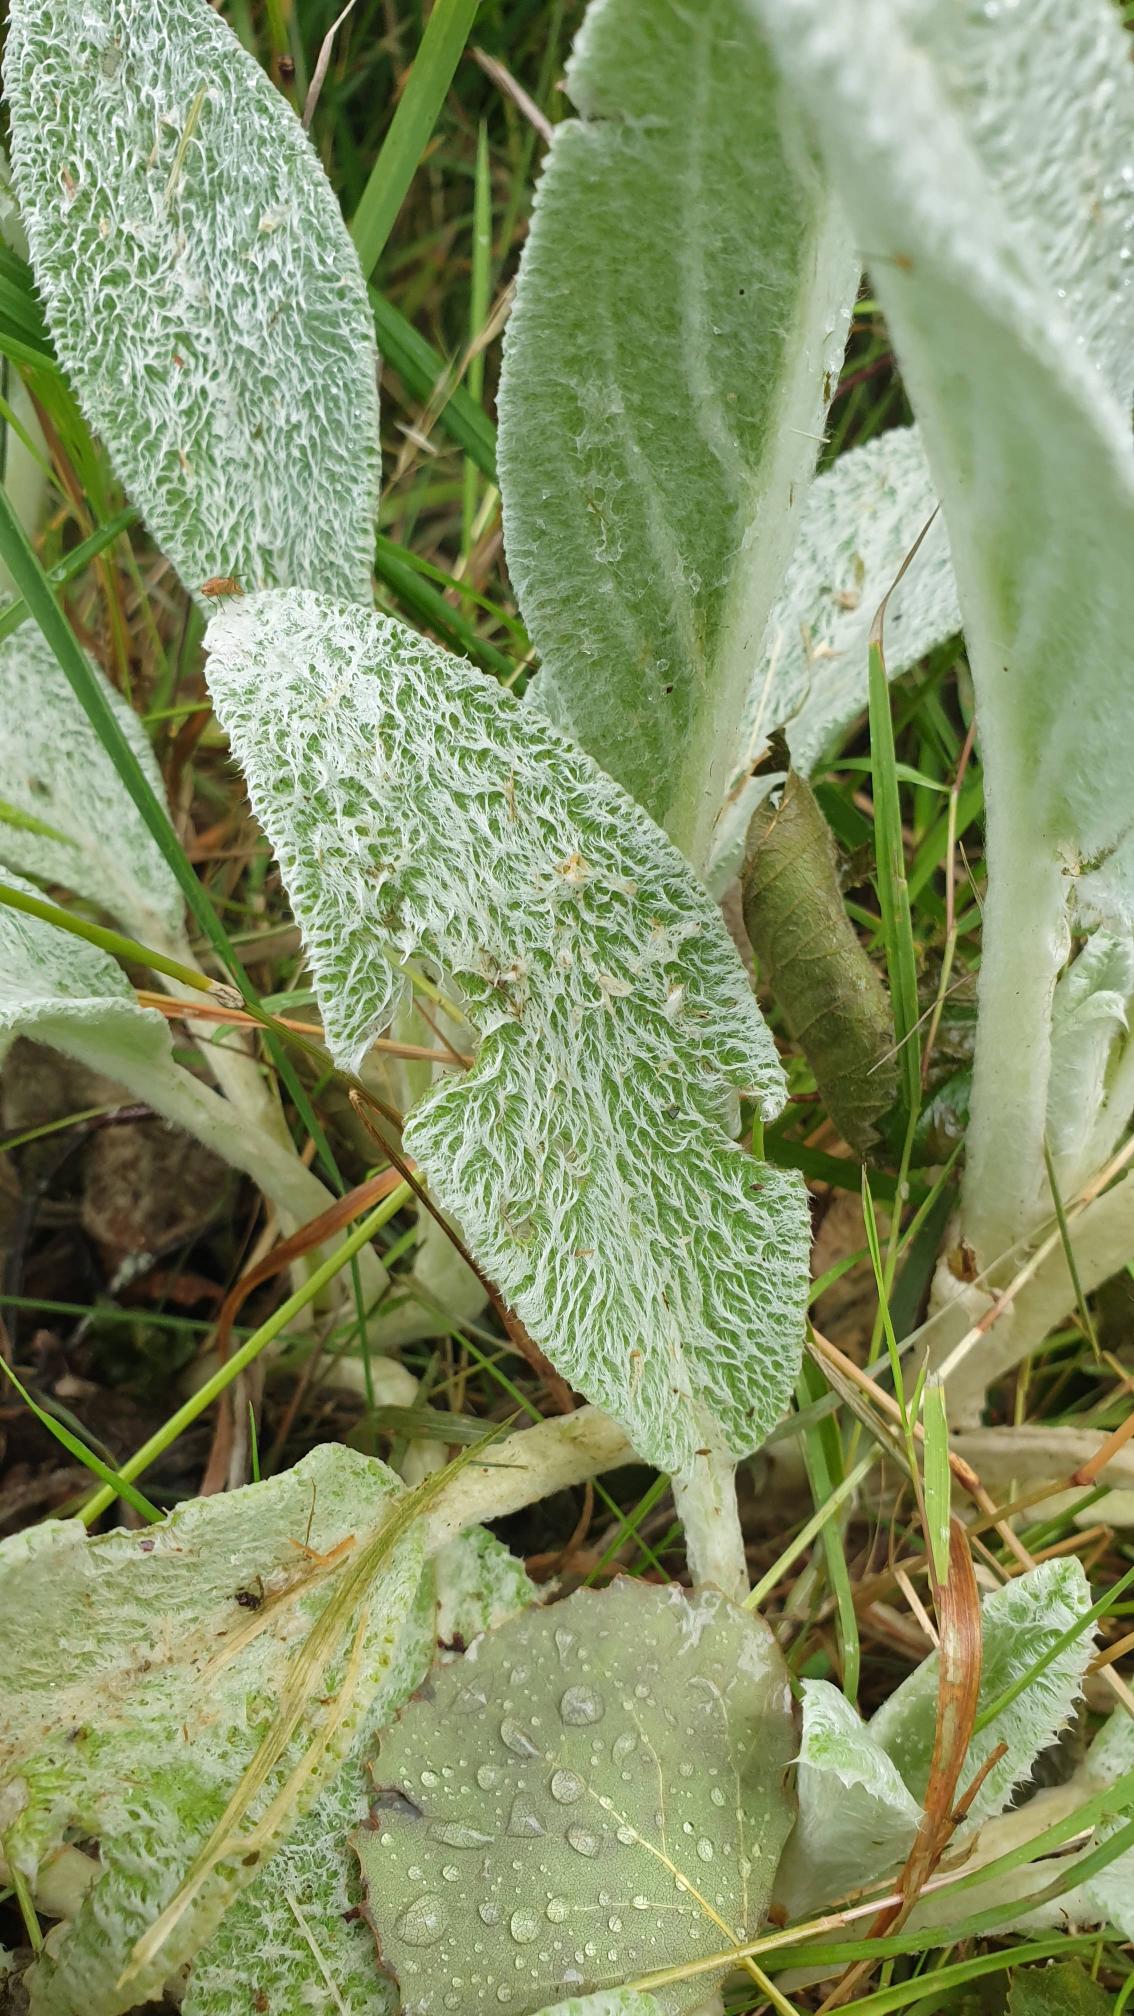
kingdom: Plantae
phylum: Tracheophyta
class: Magnoliopsida
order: Lamiales
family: Lamiaceae
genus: Stachys
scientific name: Stachys byzantina
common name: Lammeøre
